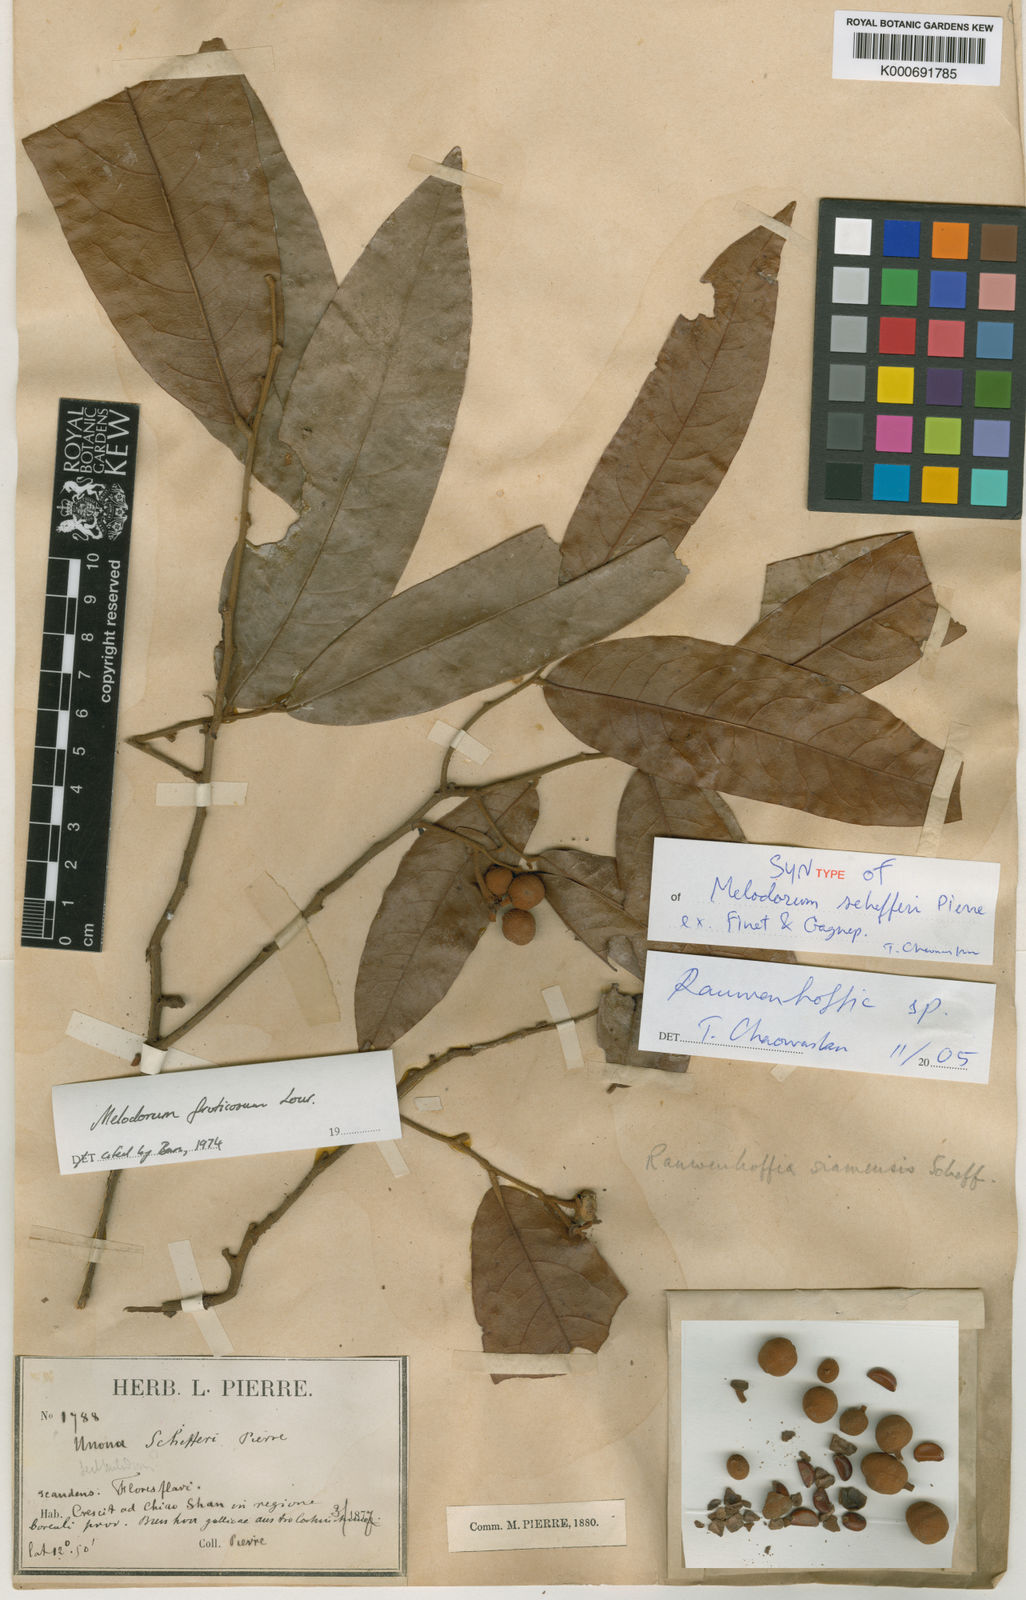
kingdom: Plantae
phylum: Tracheophyta
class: Magnoliopsida
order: Magnoliales
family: Annonaceae
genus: Melodorum
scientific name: Melodorum fruticosum
